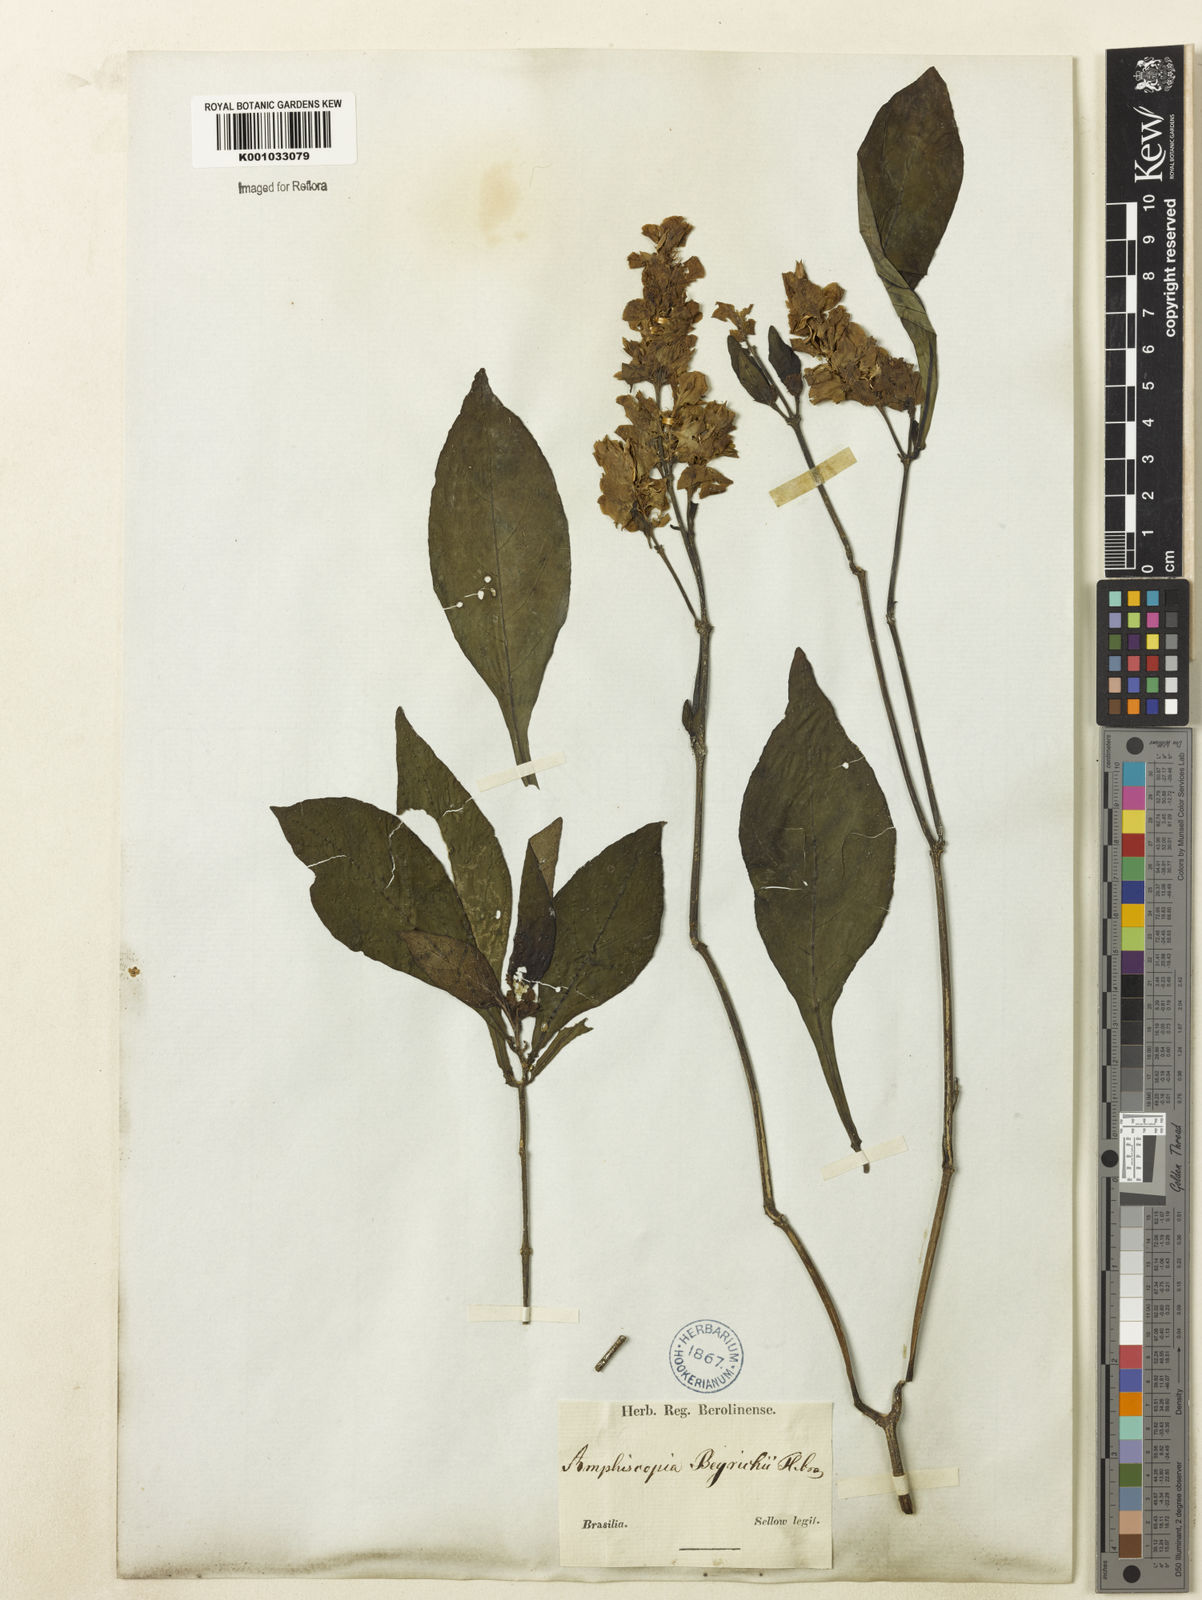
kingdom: Plantae
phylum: Tracheophyta
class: Magnoliopsida
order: Lamiales
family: Acanthaceae
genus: Dianthera
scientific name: Dianthera brasiliensis
